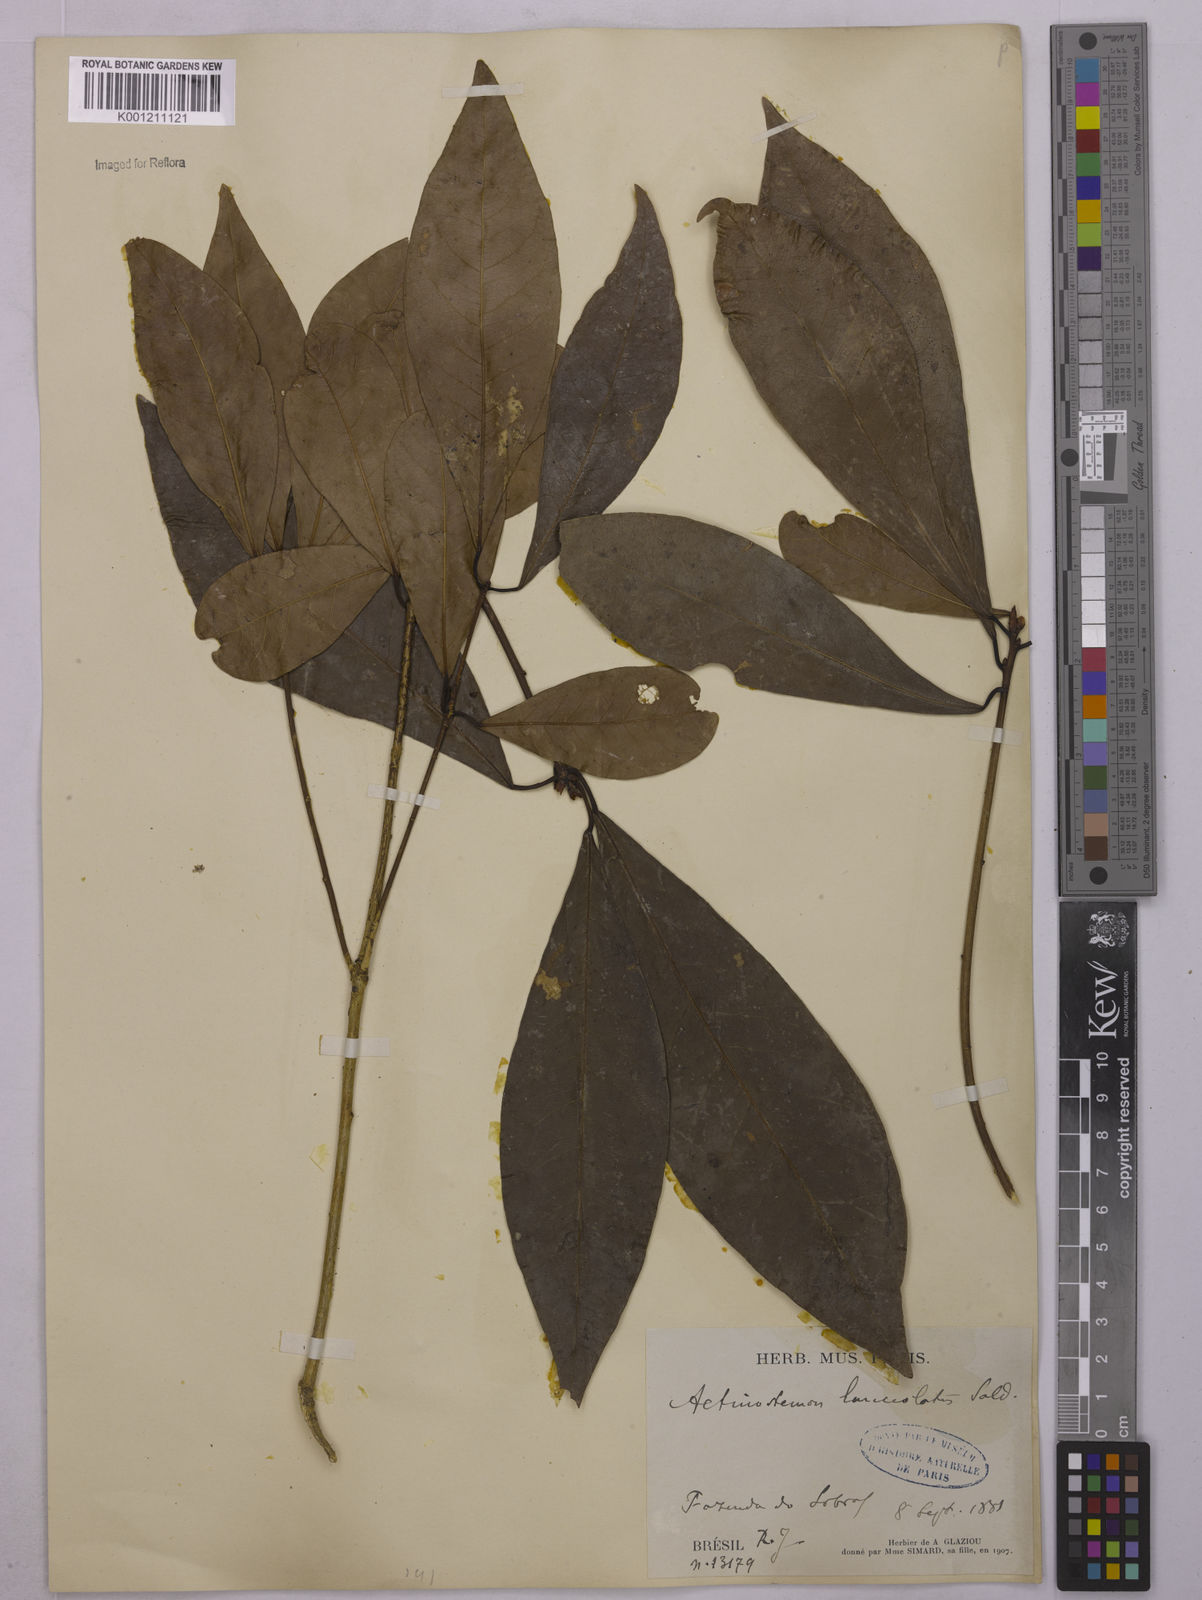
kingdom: Plantae
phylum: Tracheophyta
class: Magnoliopsida
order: Malpighiales
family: Euphorbiaceae
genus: Actinostemon
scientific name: Actinostemon
